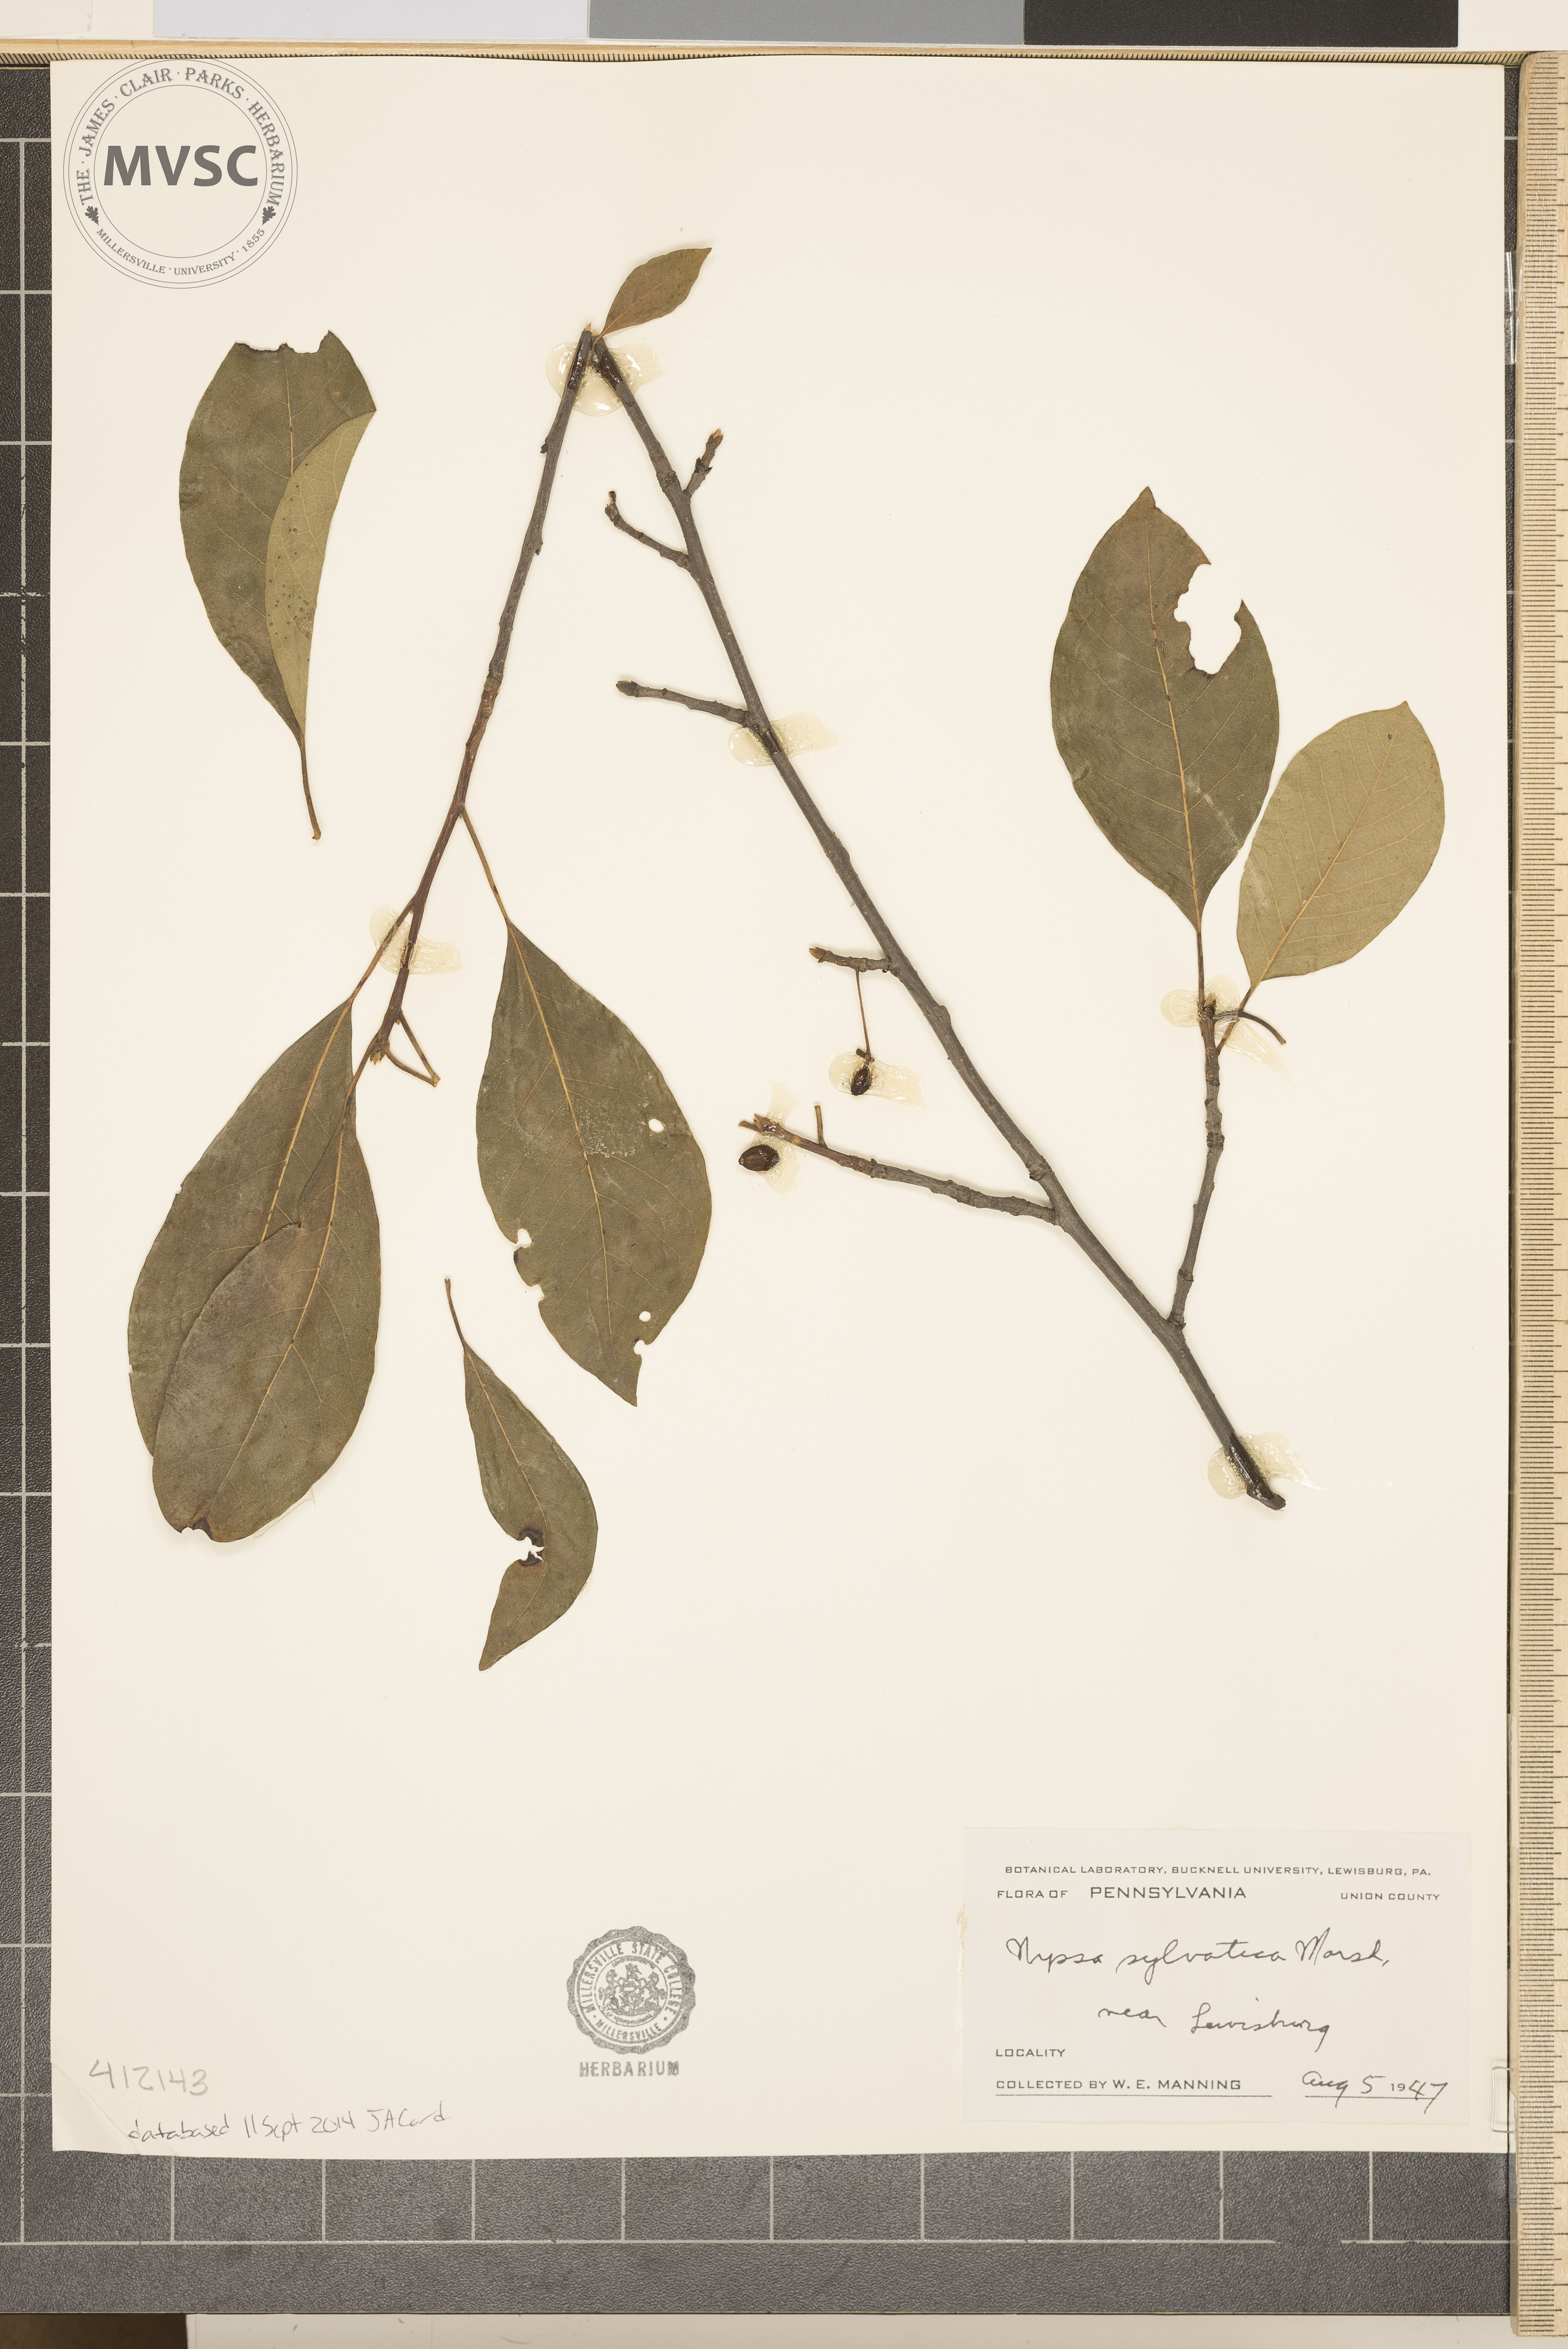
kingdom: Plantae
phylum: Tracheophyta
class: Magnoliopsida
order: Cornales
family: Nyssaceae
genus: Nyssa
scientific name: Nyssa sylvatica
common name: Black tupelo
